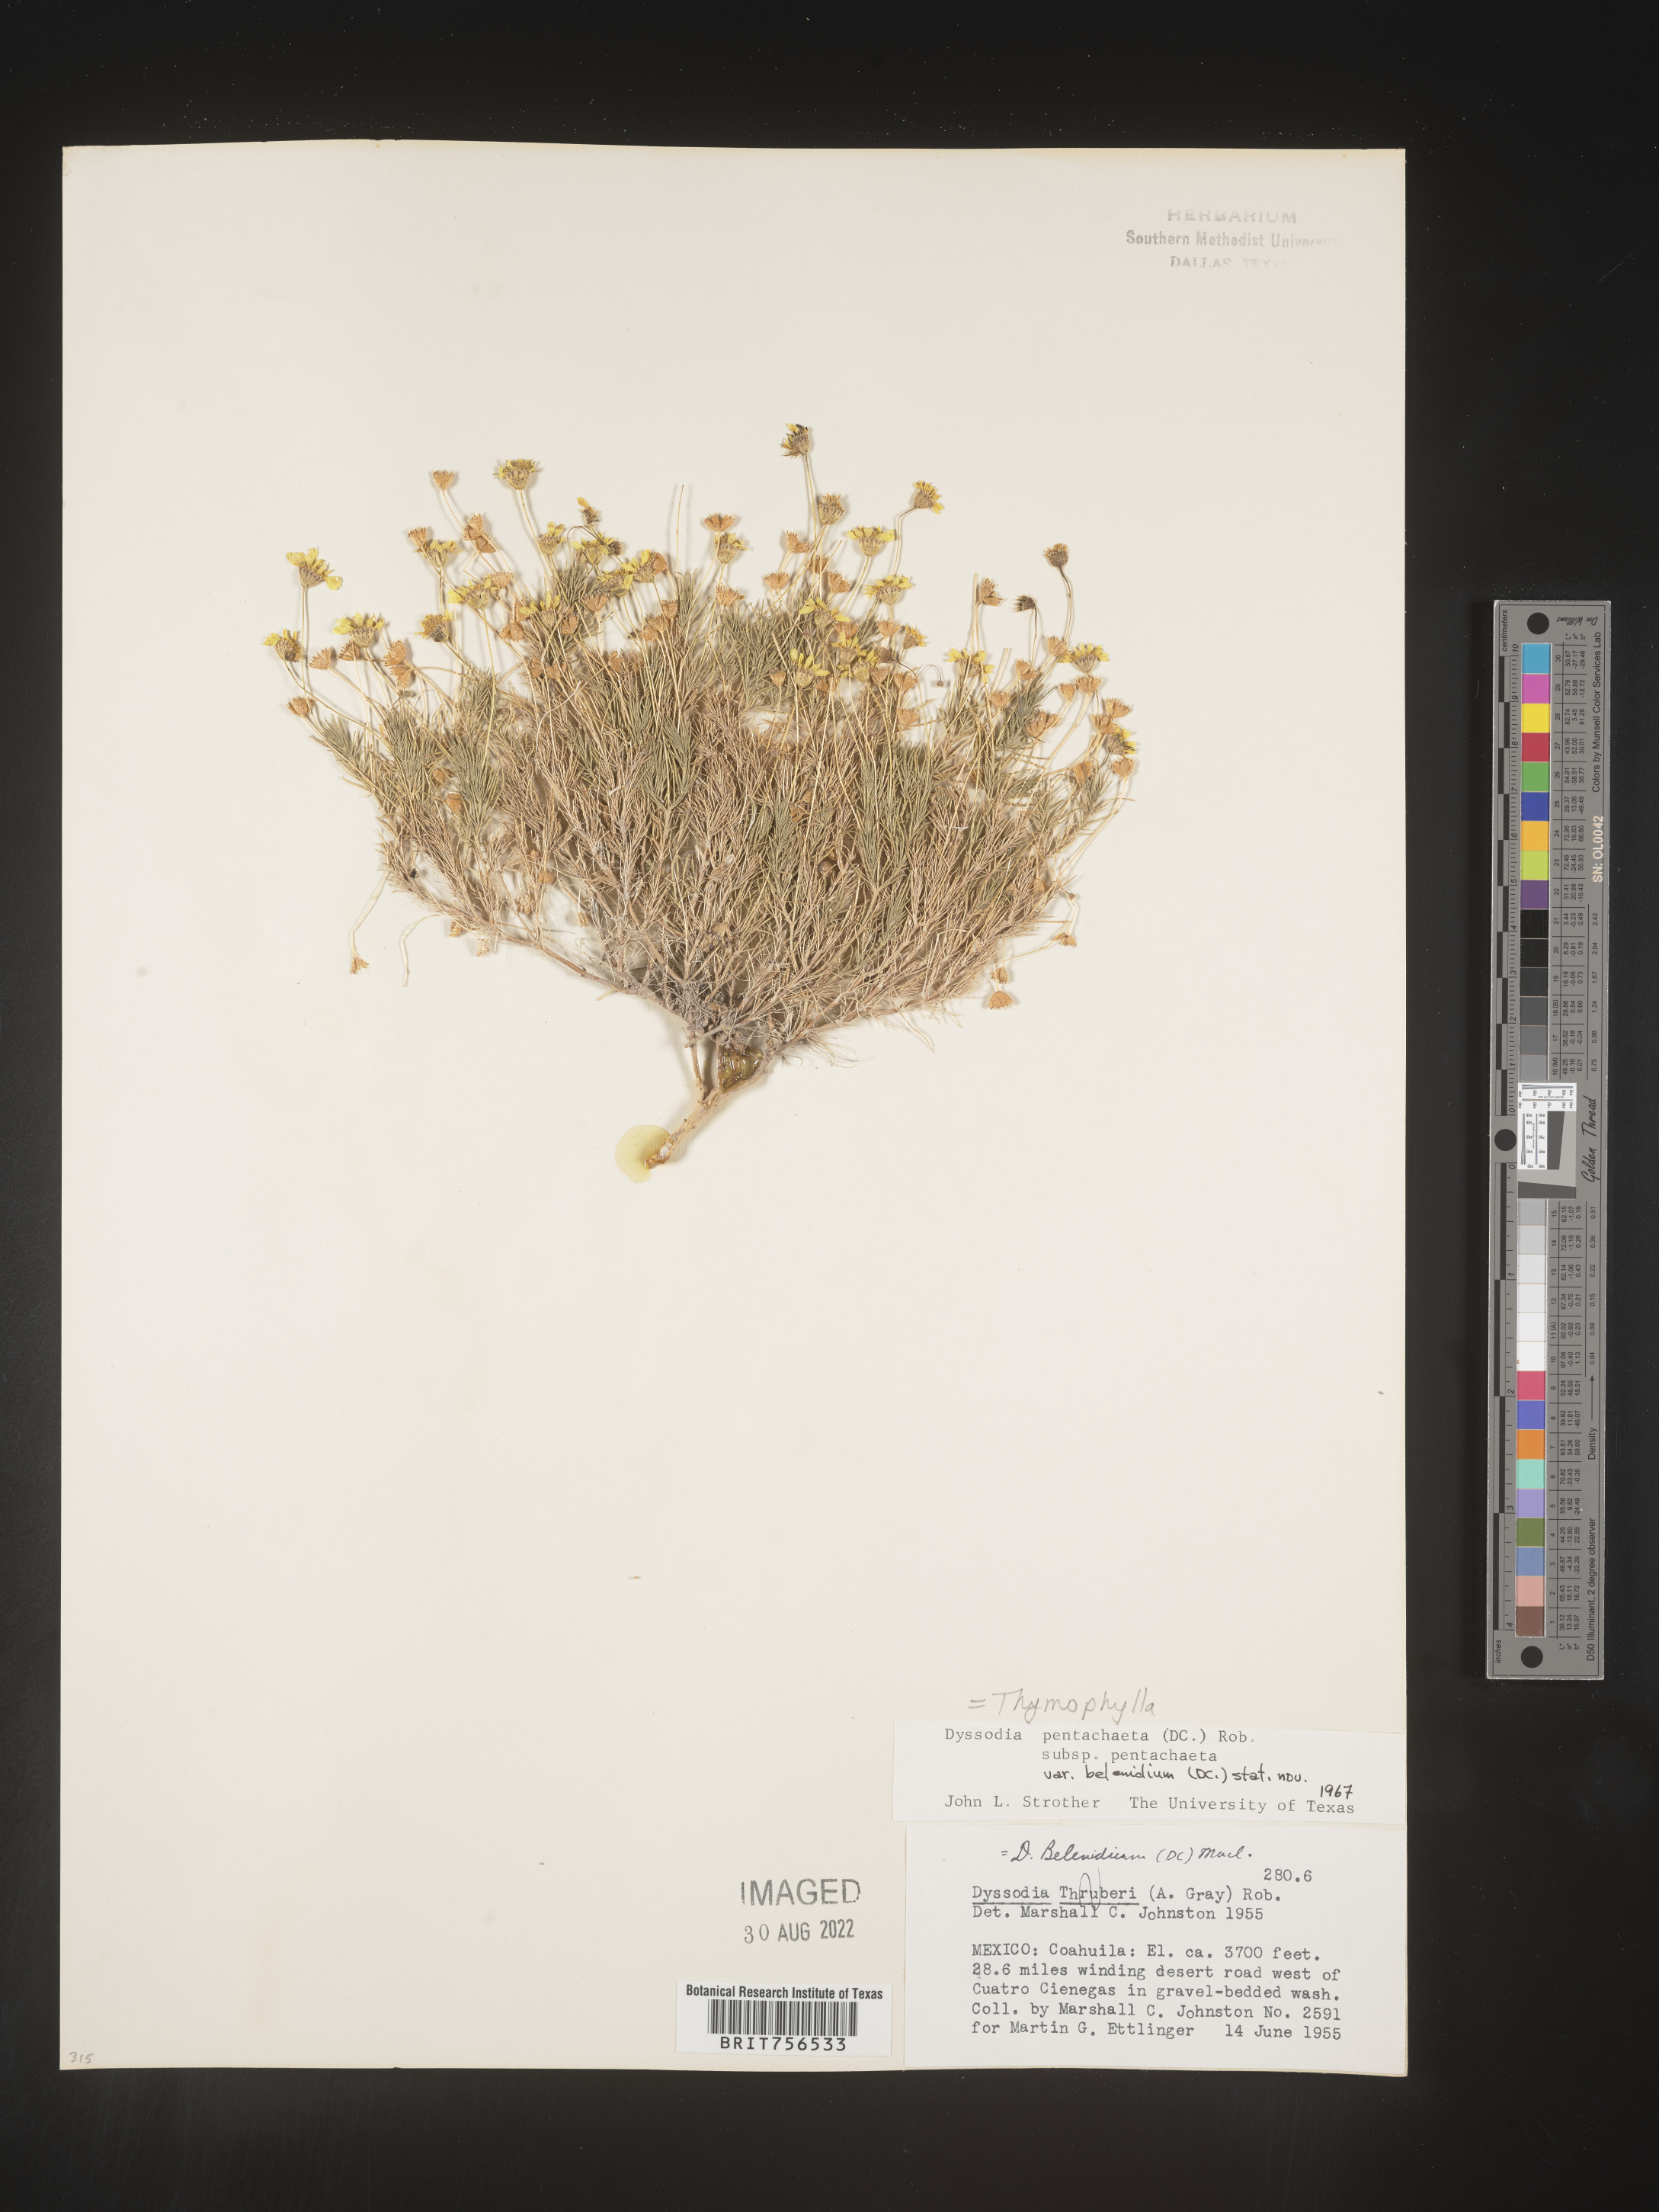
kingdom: Plantae
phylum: Tracheophyta
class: Magnoliopsida
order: Asterales
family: Asteraceae
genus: Thymophylla
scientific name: Thymophylla pentachaeta
